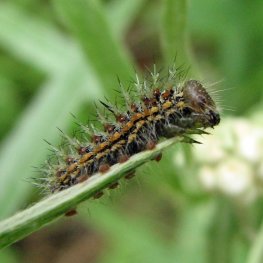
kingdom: Animalia
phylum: Arthropoda
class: Insecta
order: Lepidoptera
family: Nymphalidae
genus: Vanessa
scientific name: Vanessa virginiensis
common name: American Lady
